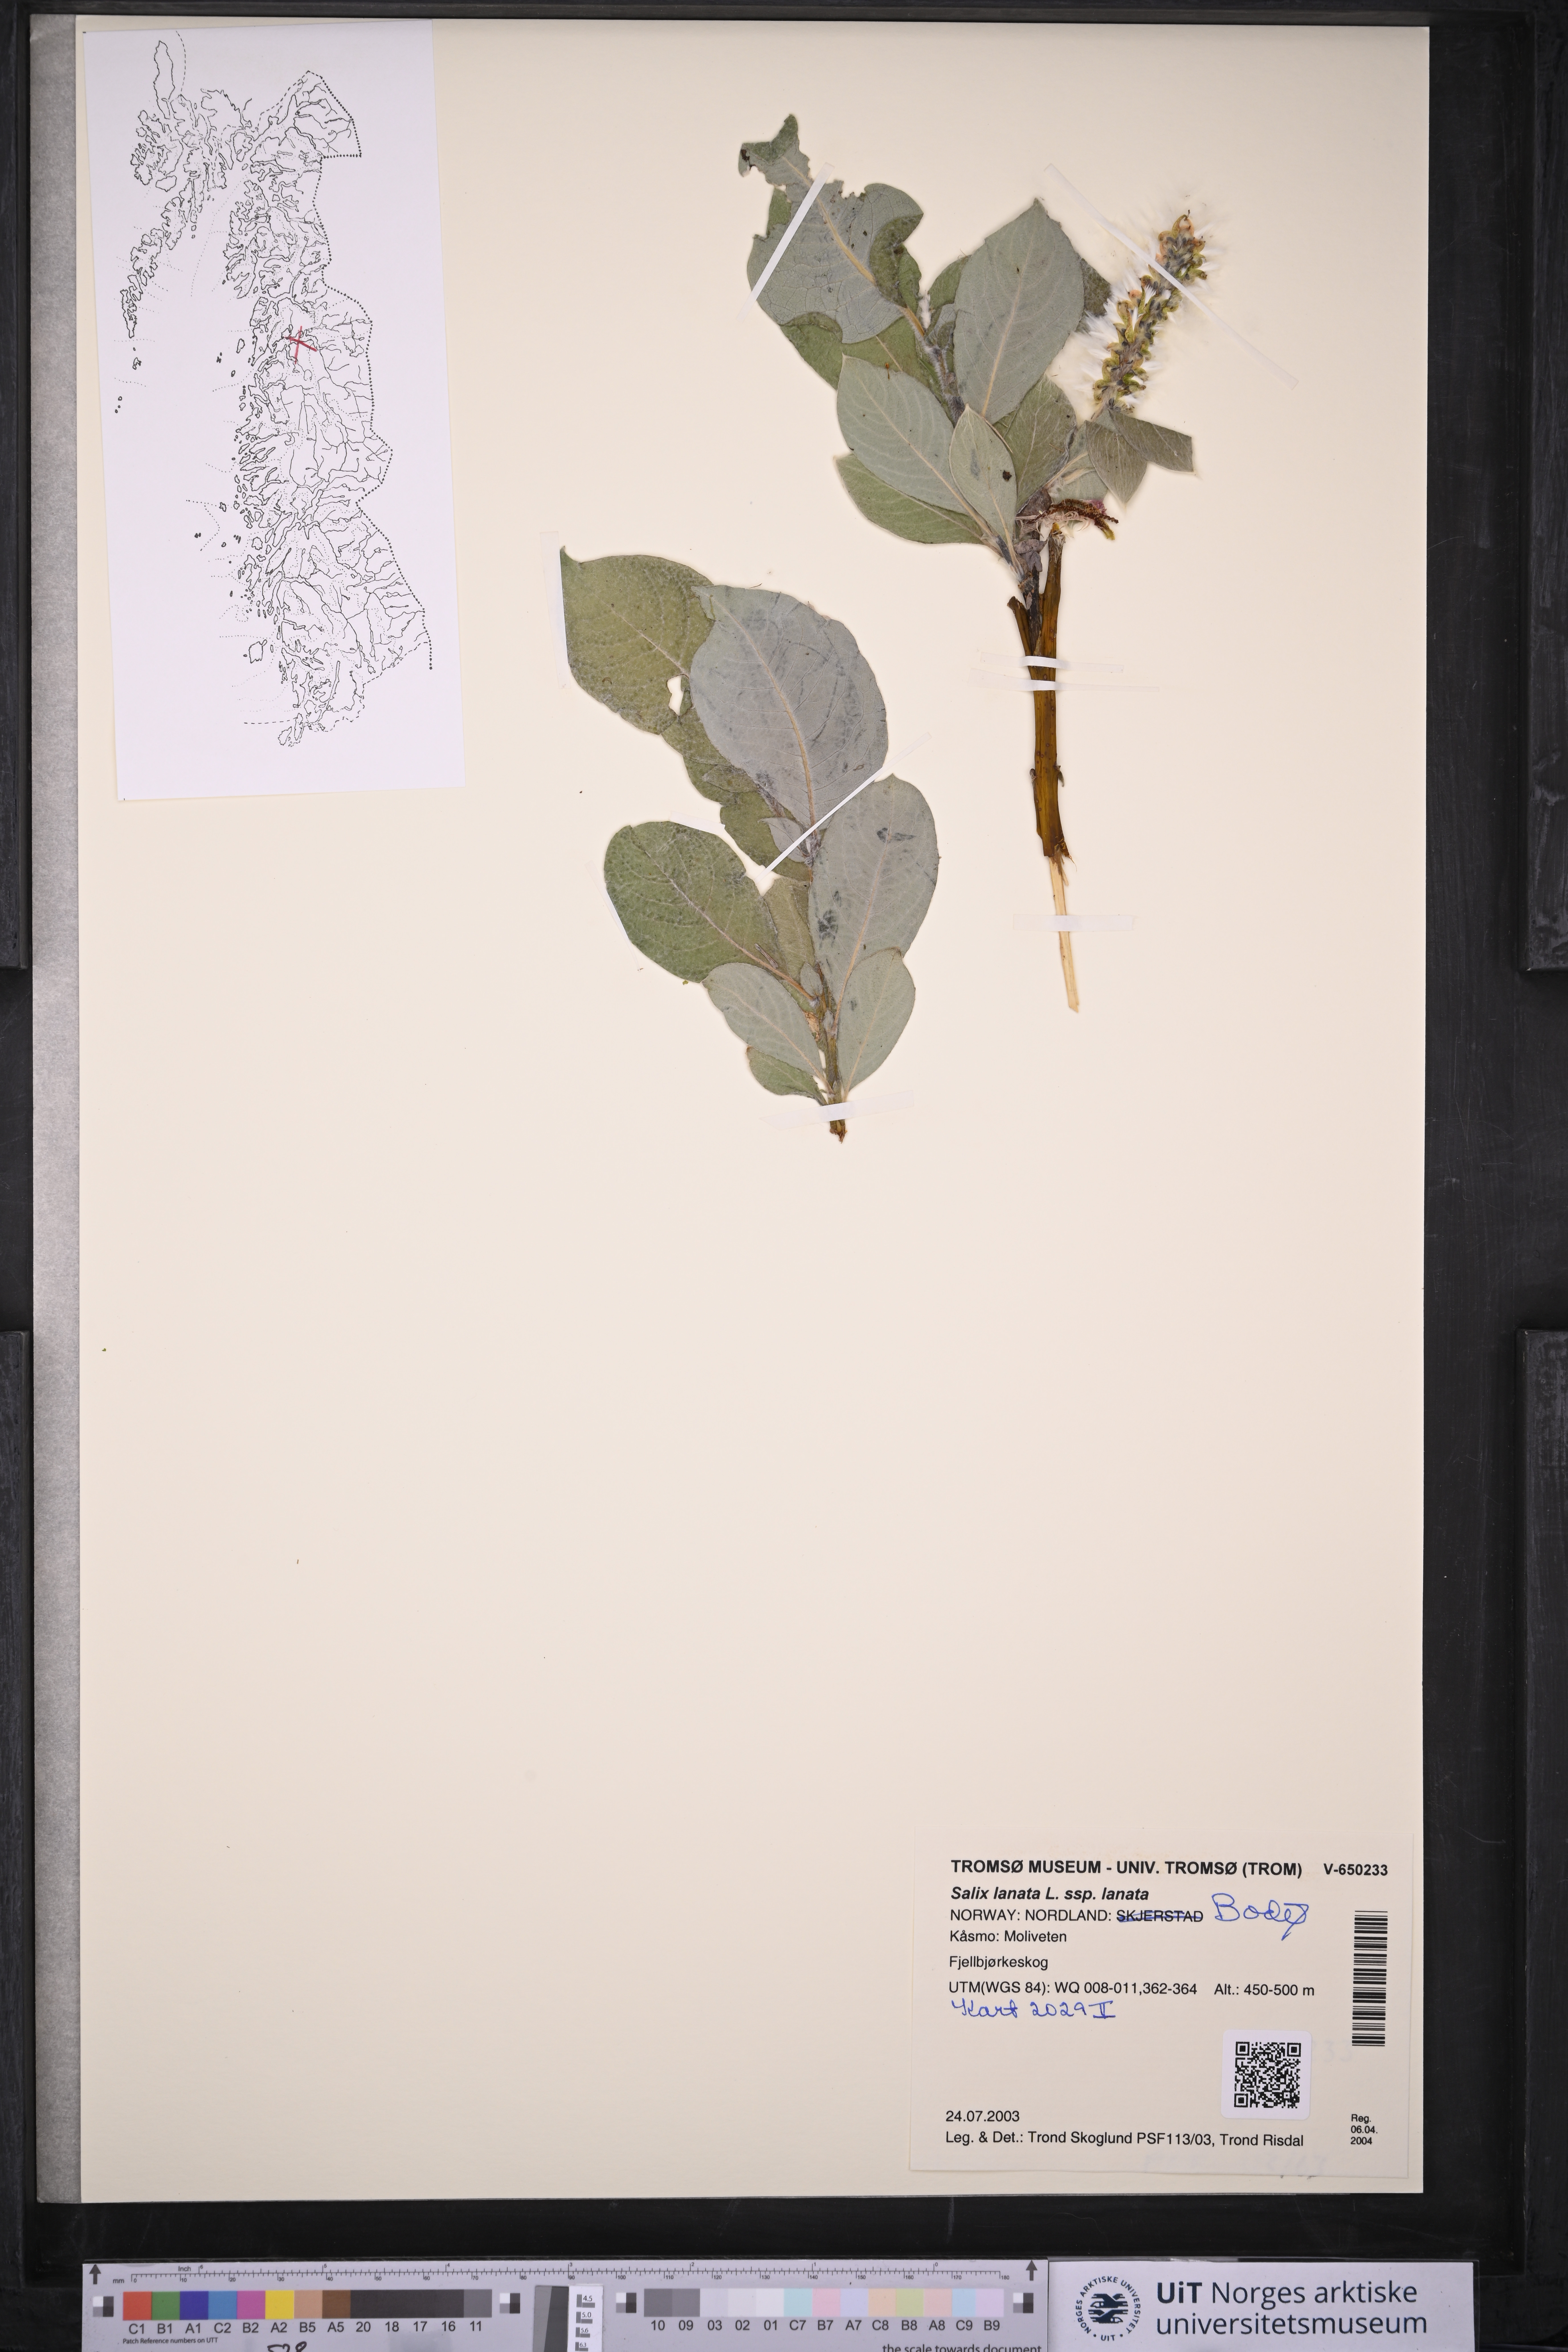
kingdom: Plantae
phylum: Tracheophyta
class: Magnoliopsida
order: Malpighiales
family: Salicaceae
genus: Salix
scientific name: Salix lanata
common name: Woolly willow
